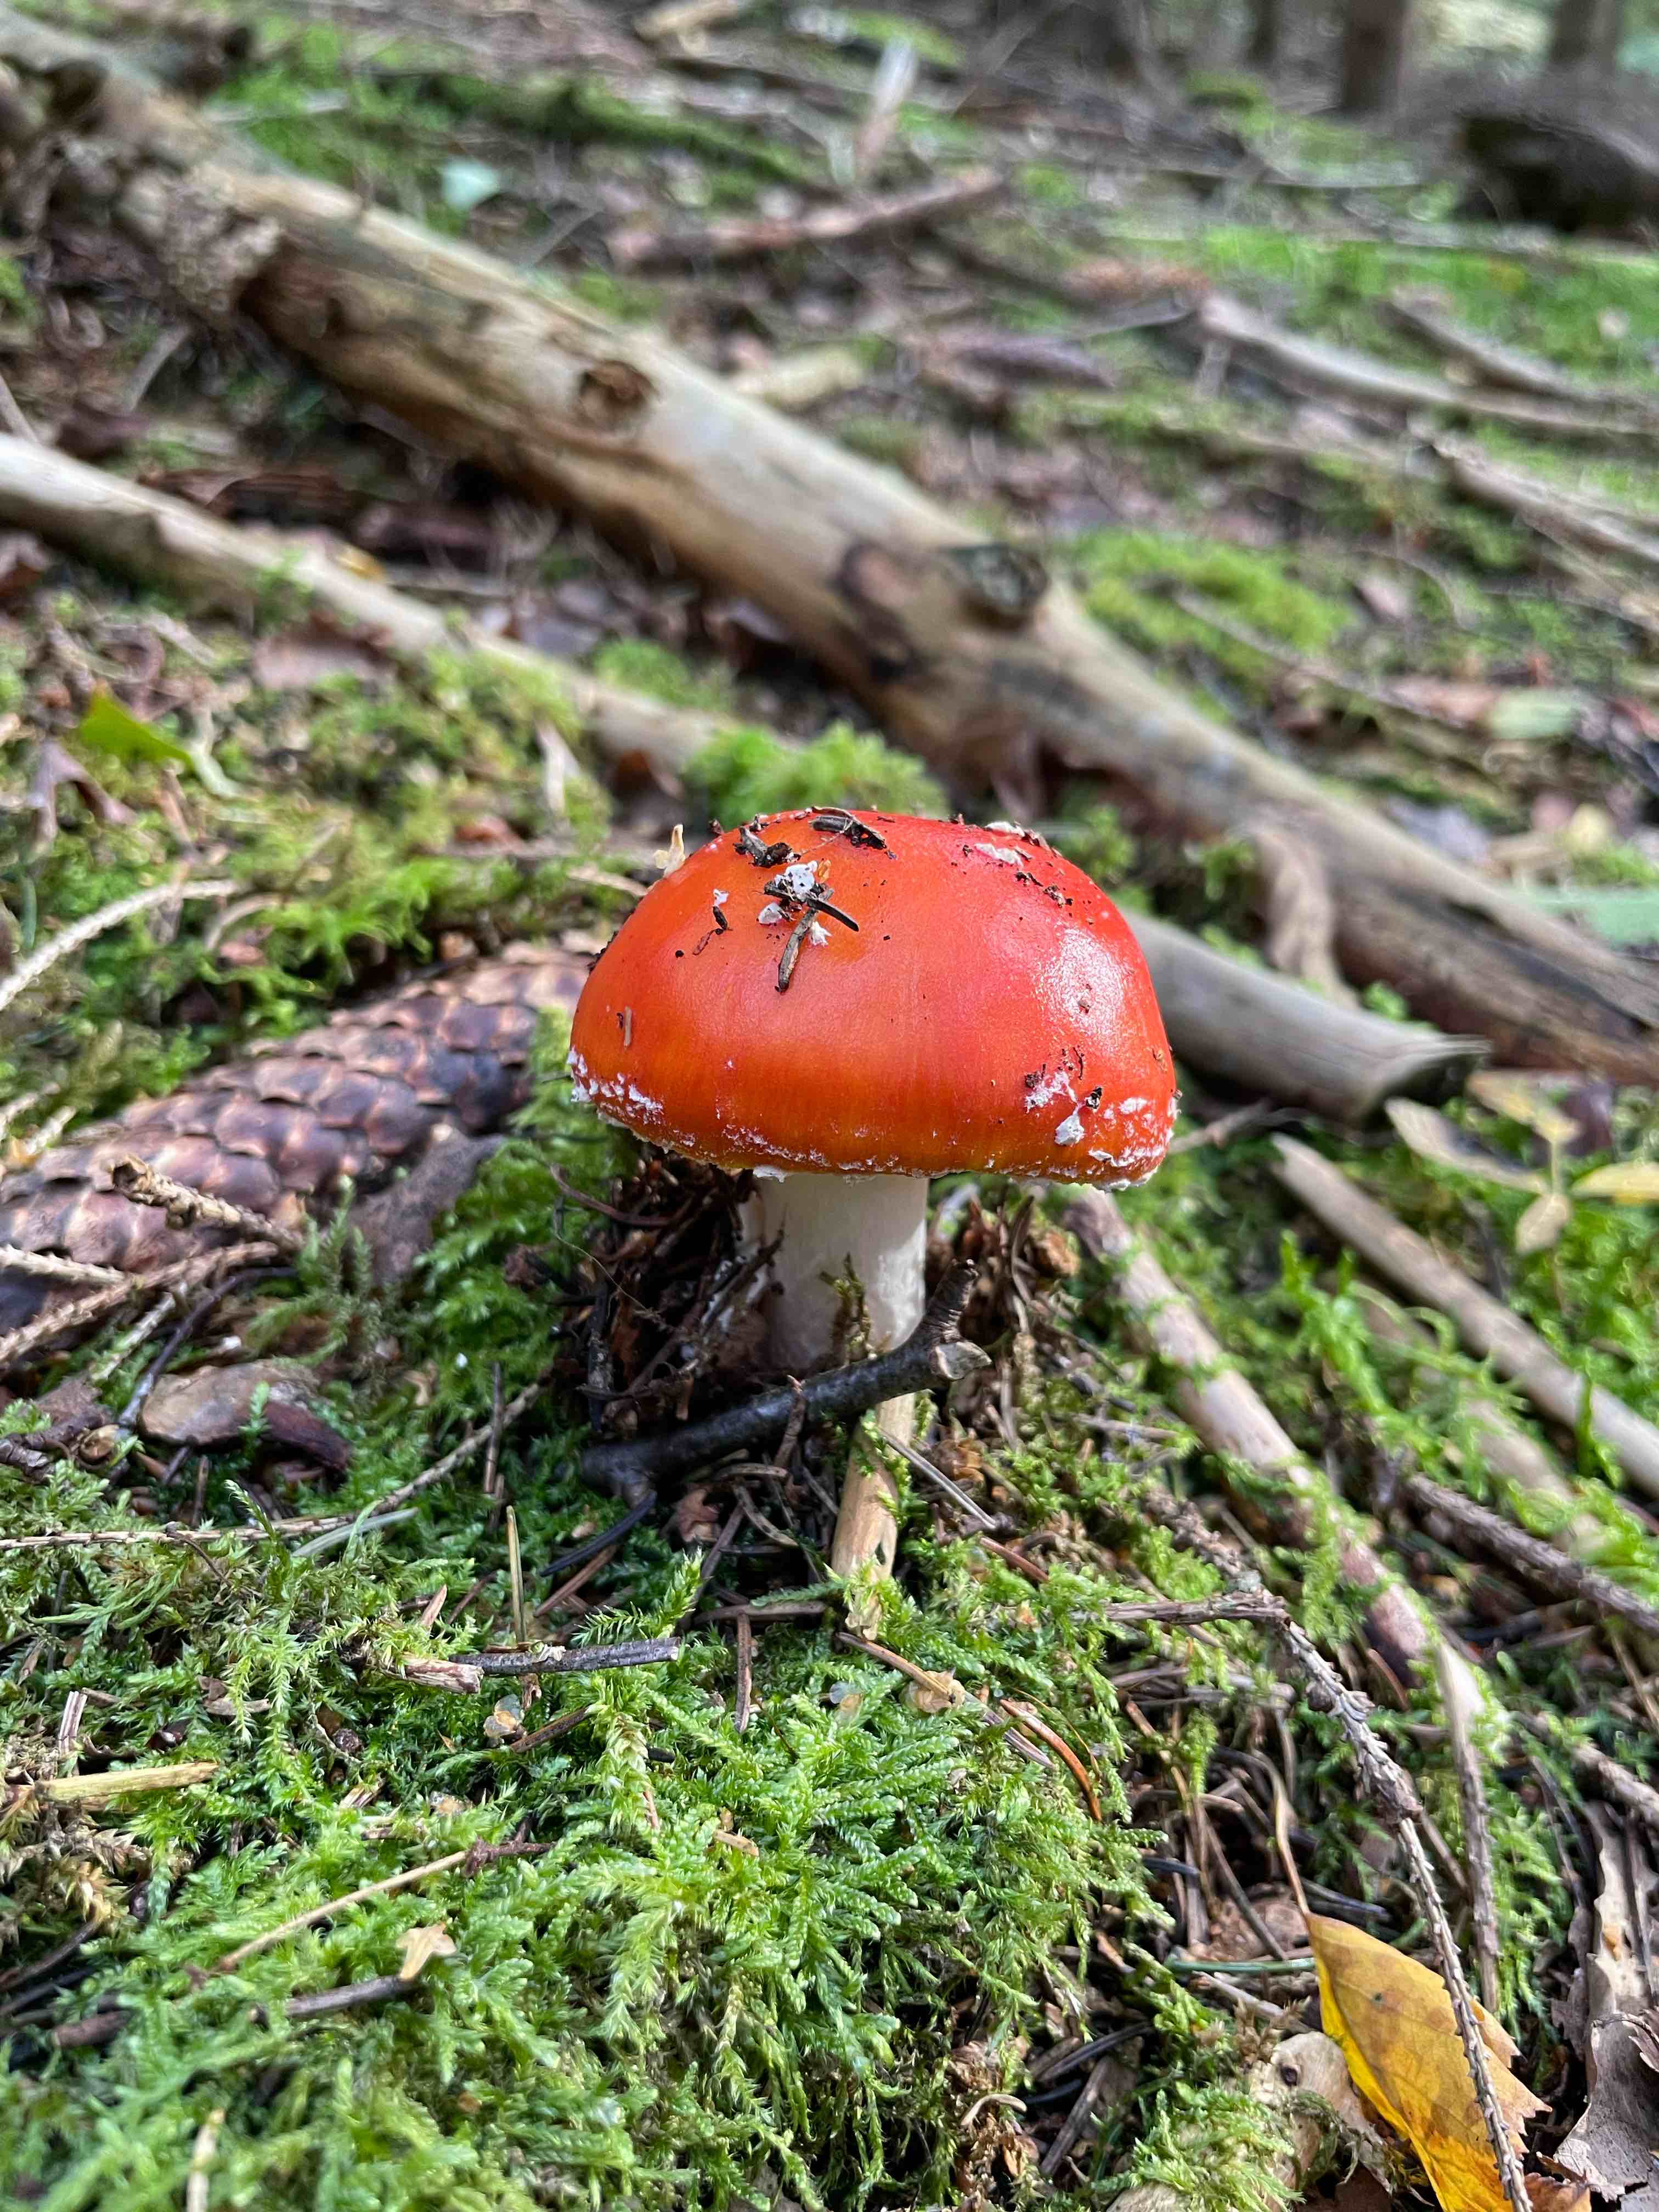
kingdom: Fungi
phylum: Basidiomycota
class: Agaricomycetes
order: Agaricales
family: Amanitaceae
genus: Amanita
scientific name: Amanita muscaria
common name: rød fluesvamp
